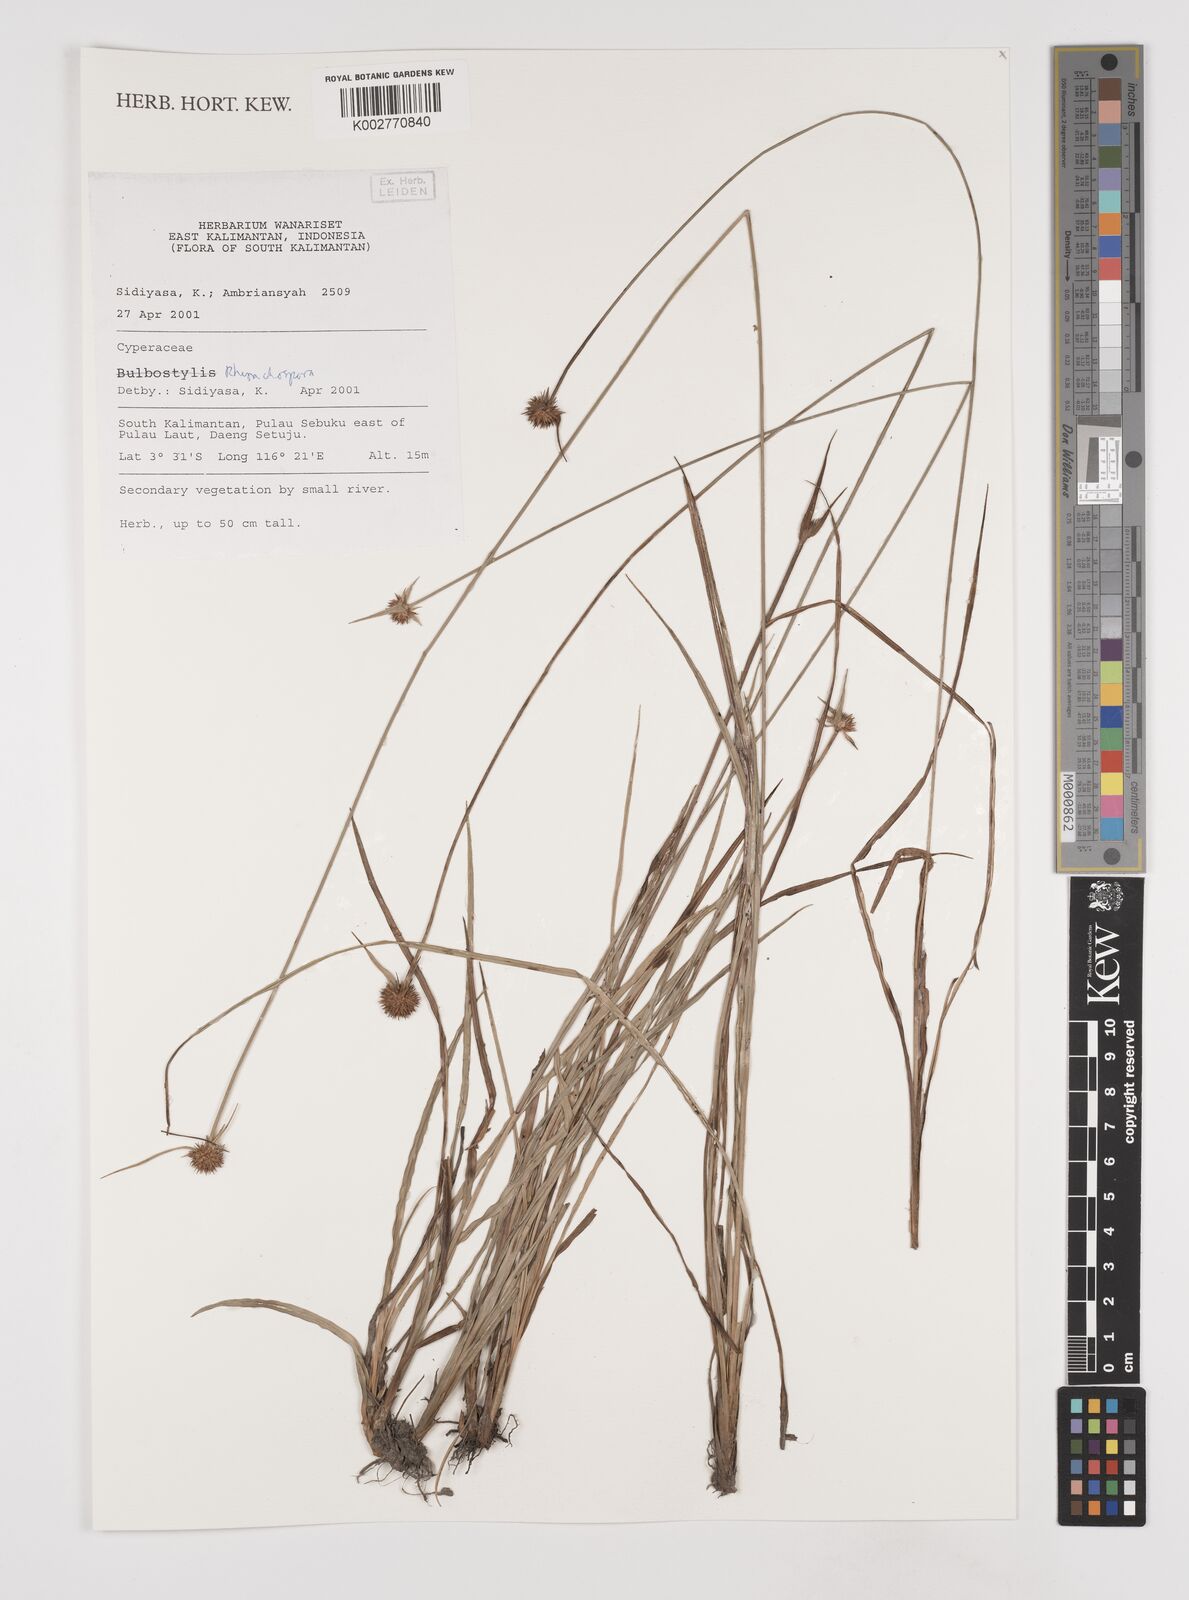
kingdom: Plantae
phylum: Tracheophyta
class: Liliopsida
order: Poales
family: Cyperaceae
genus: Rhynchospora
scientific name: Rhynchospora
